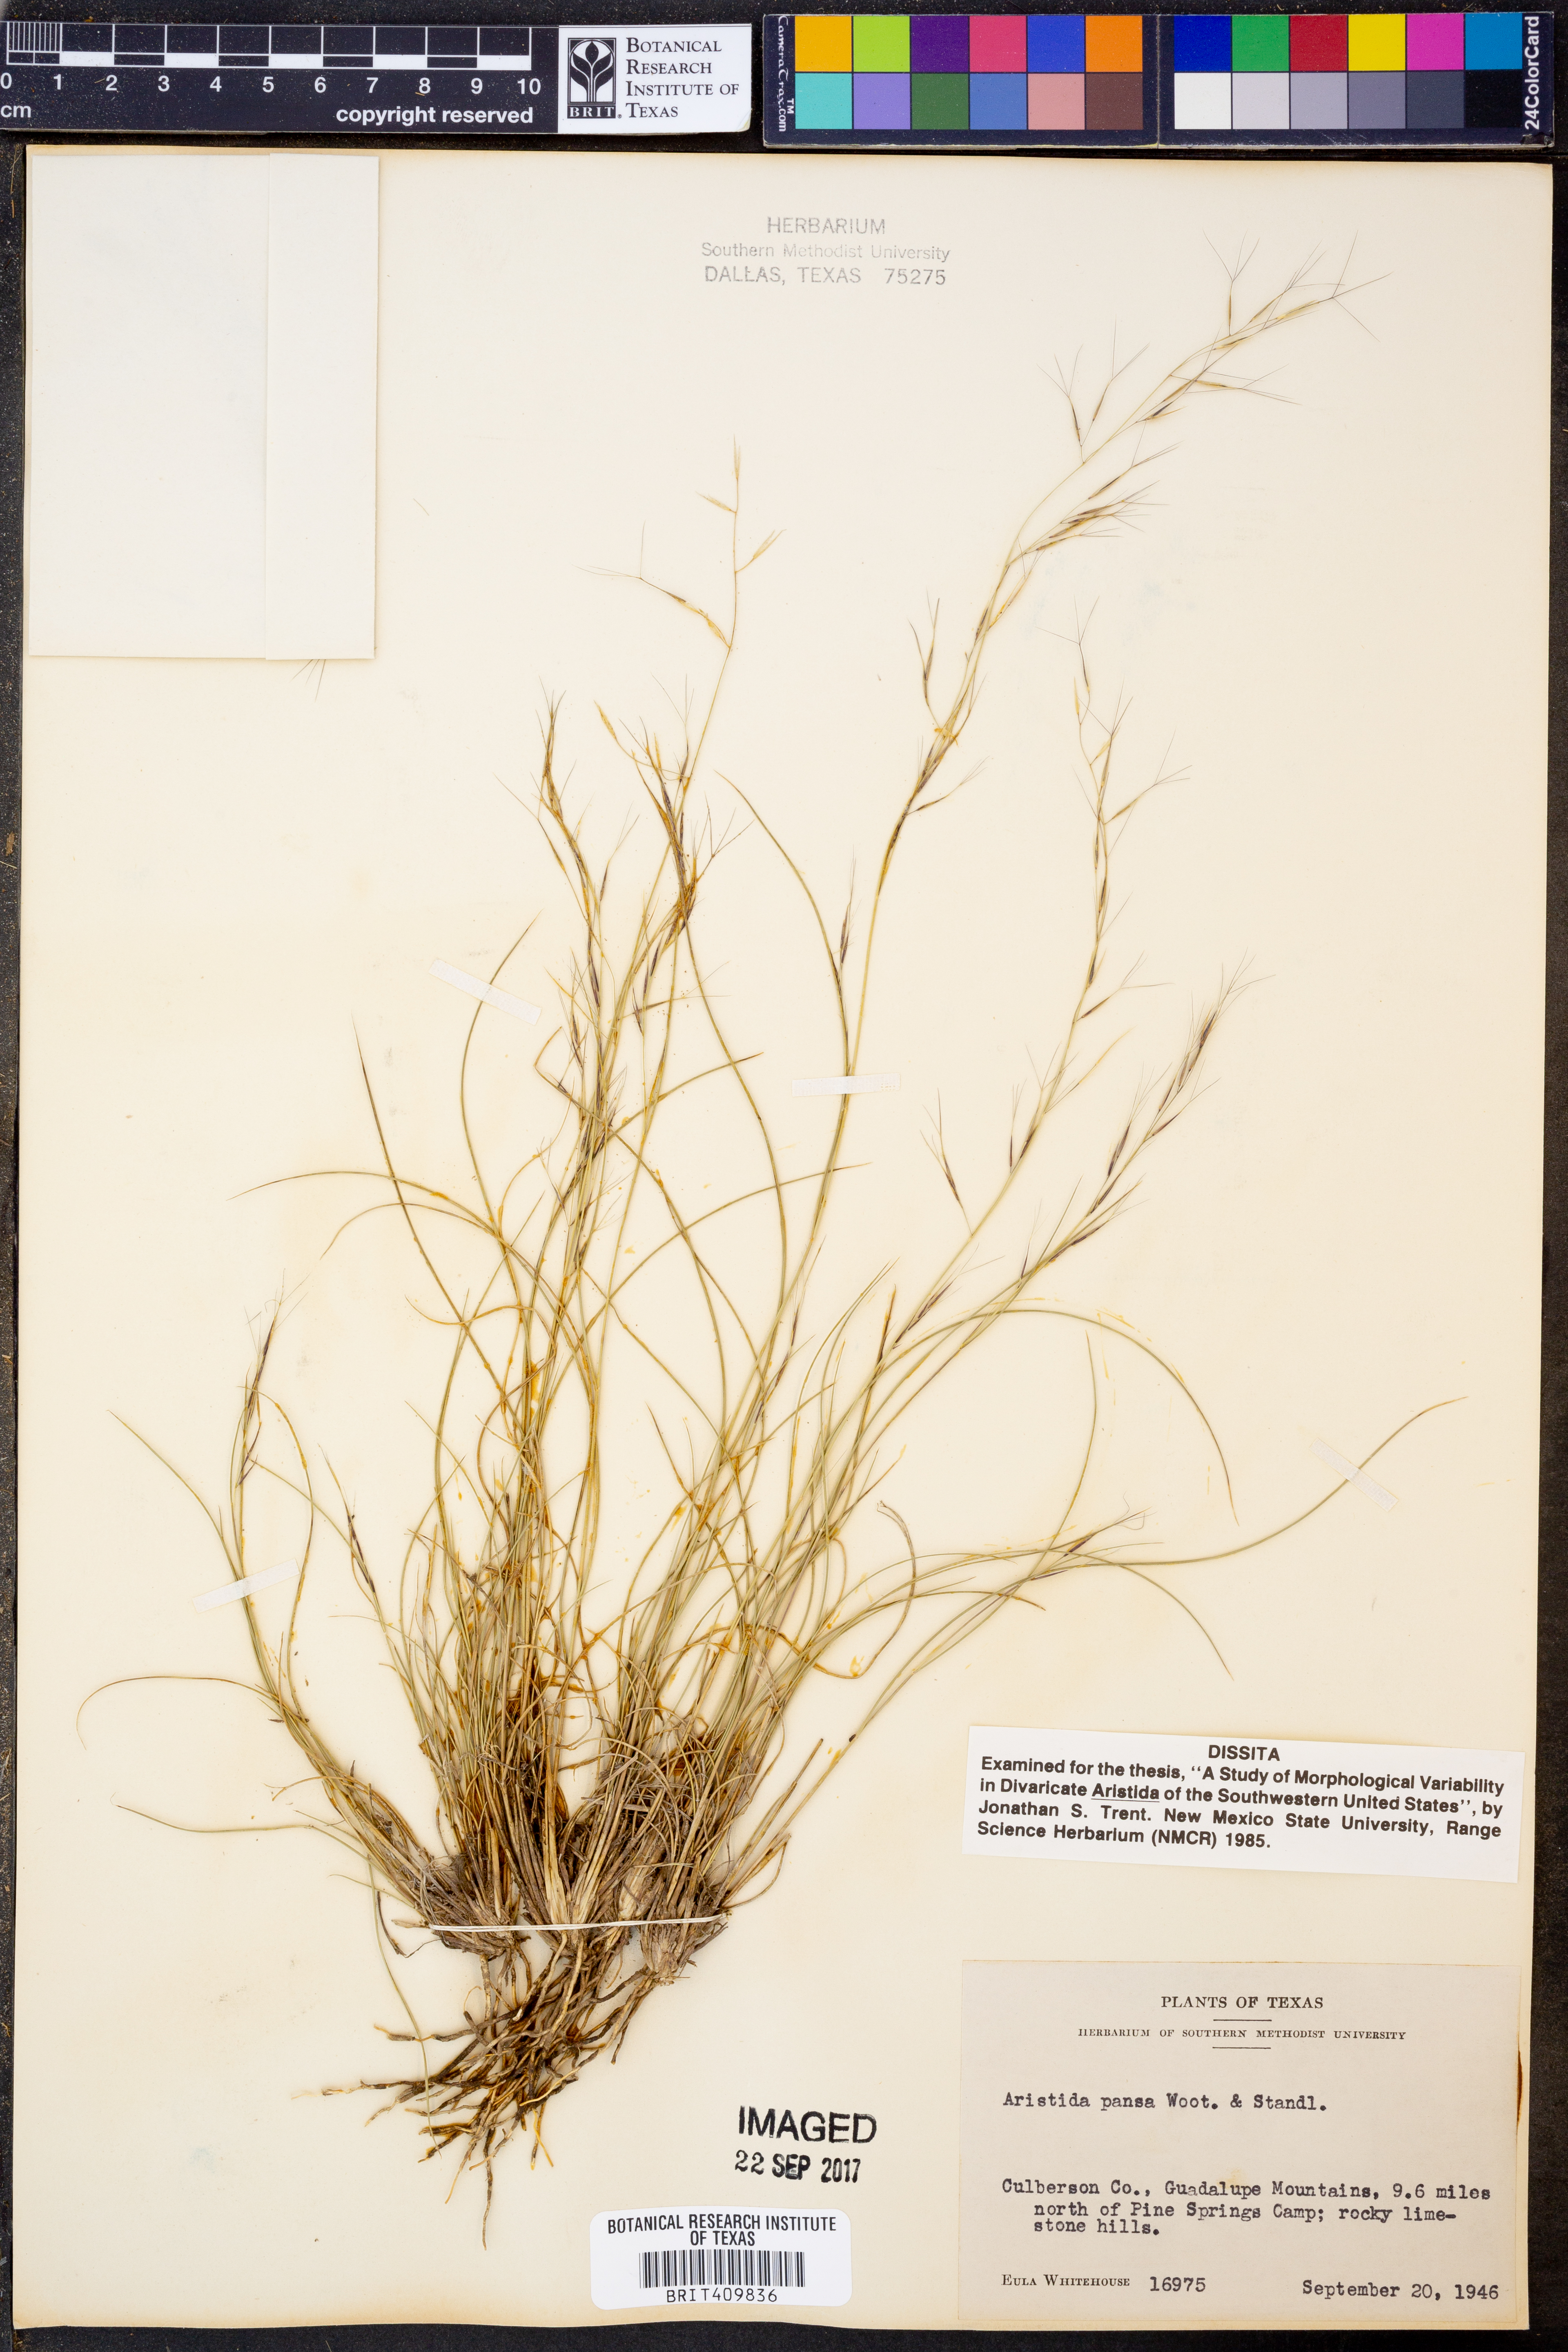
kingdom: Plantae
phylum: Tracheophyta
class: Liliopsida
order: Poales
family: Poaceae
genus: Aristida
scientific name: Aristida pansa
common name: Wooton's three-awn
